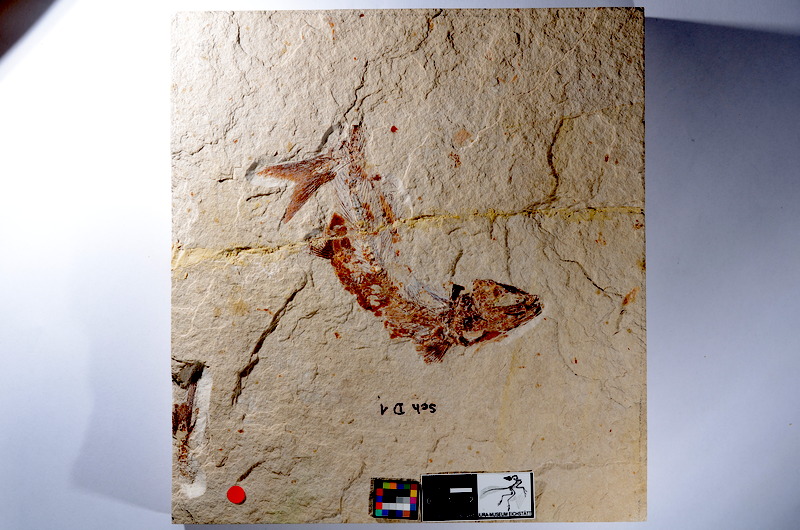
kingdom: Animalia
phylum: Chordata
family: Ascalaboidae
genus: Tharsis
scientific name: Tharsis dubius
